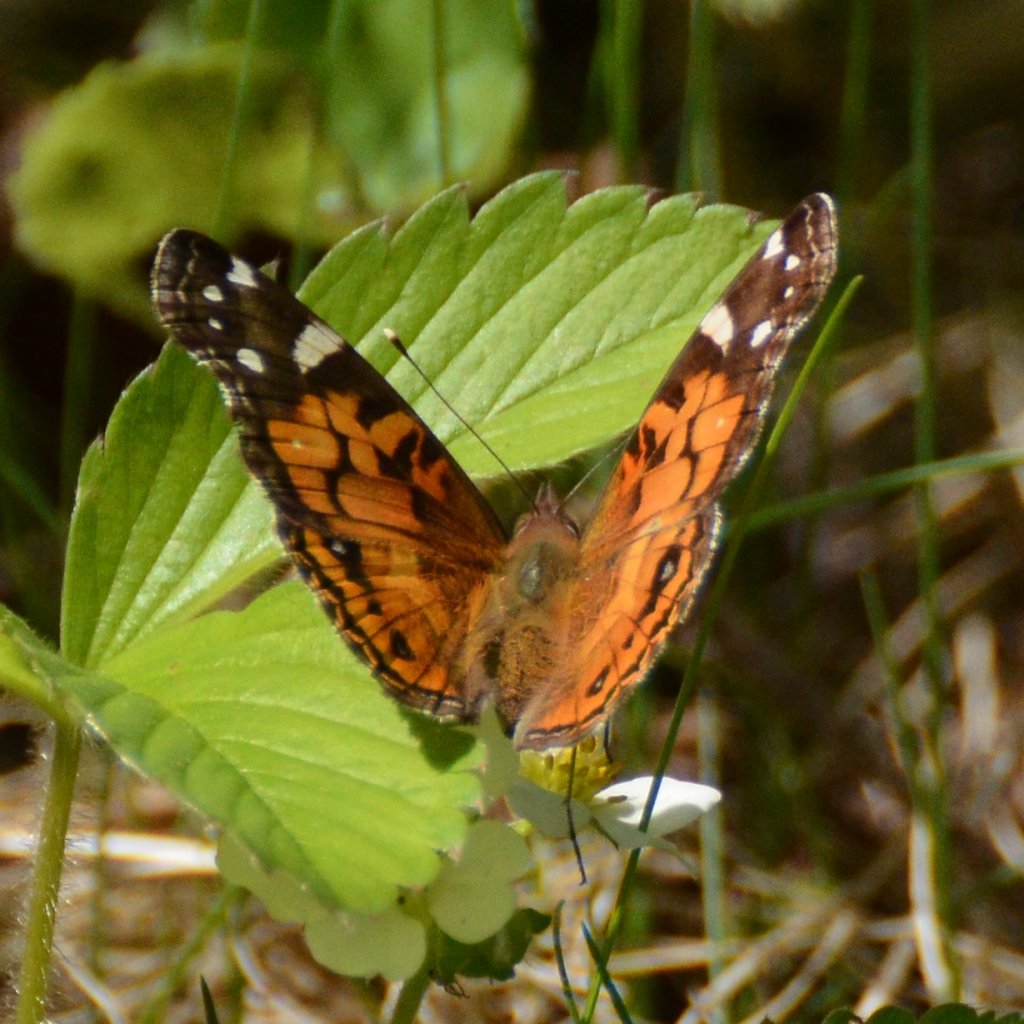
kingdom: Animalia
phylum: Arthropoda
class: Insecta
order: Lepidoptera
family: Nymphalidae
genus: Vanessa
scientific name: Vanessa virginiensis
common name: American Lady
